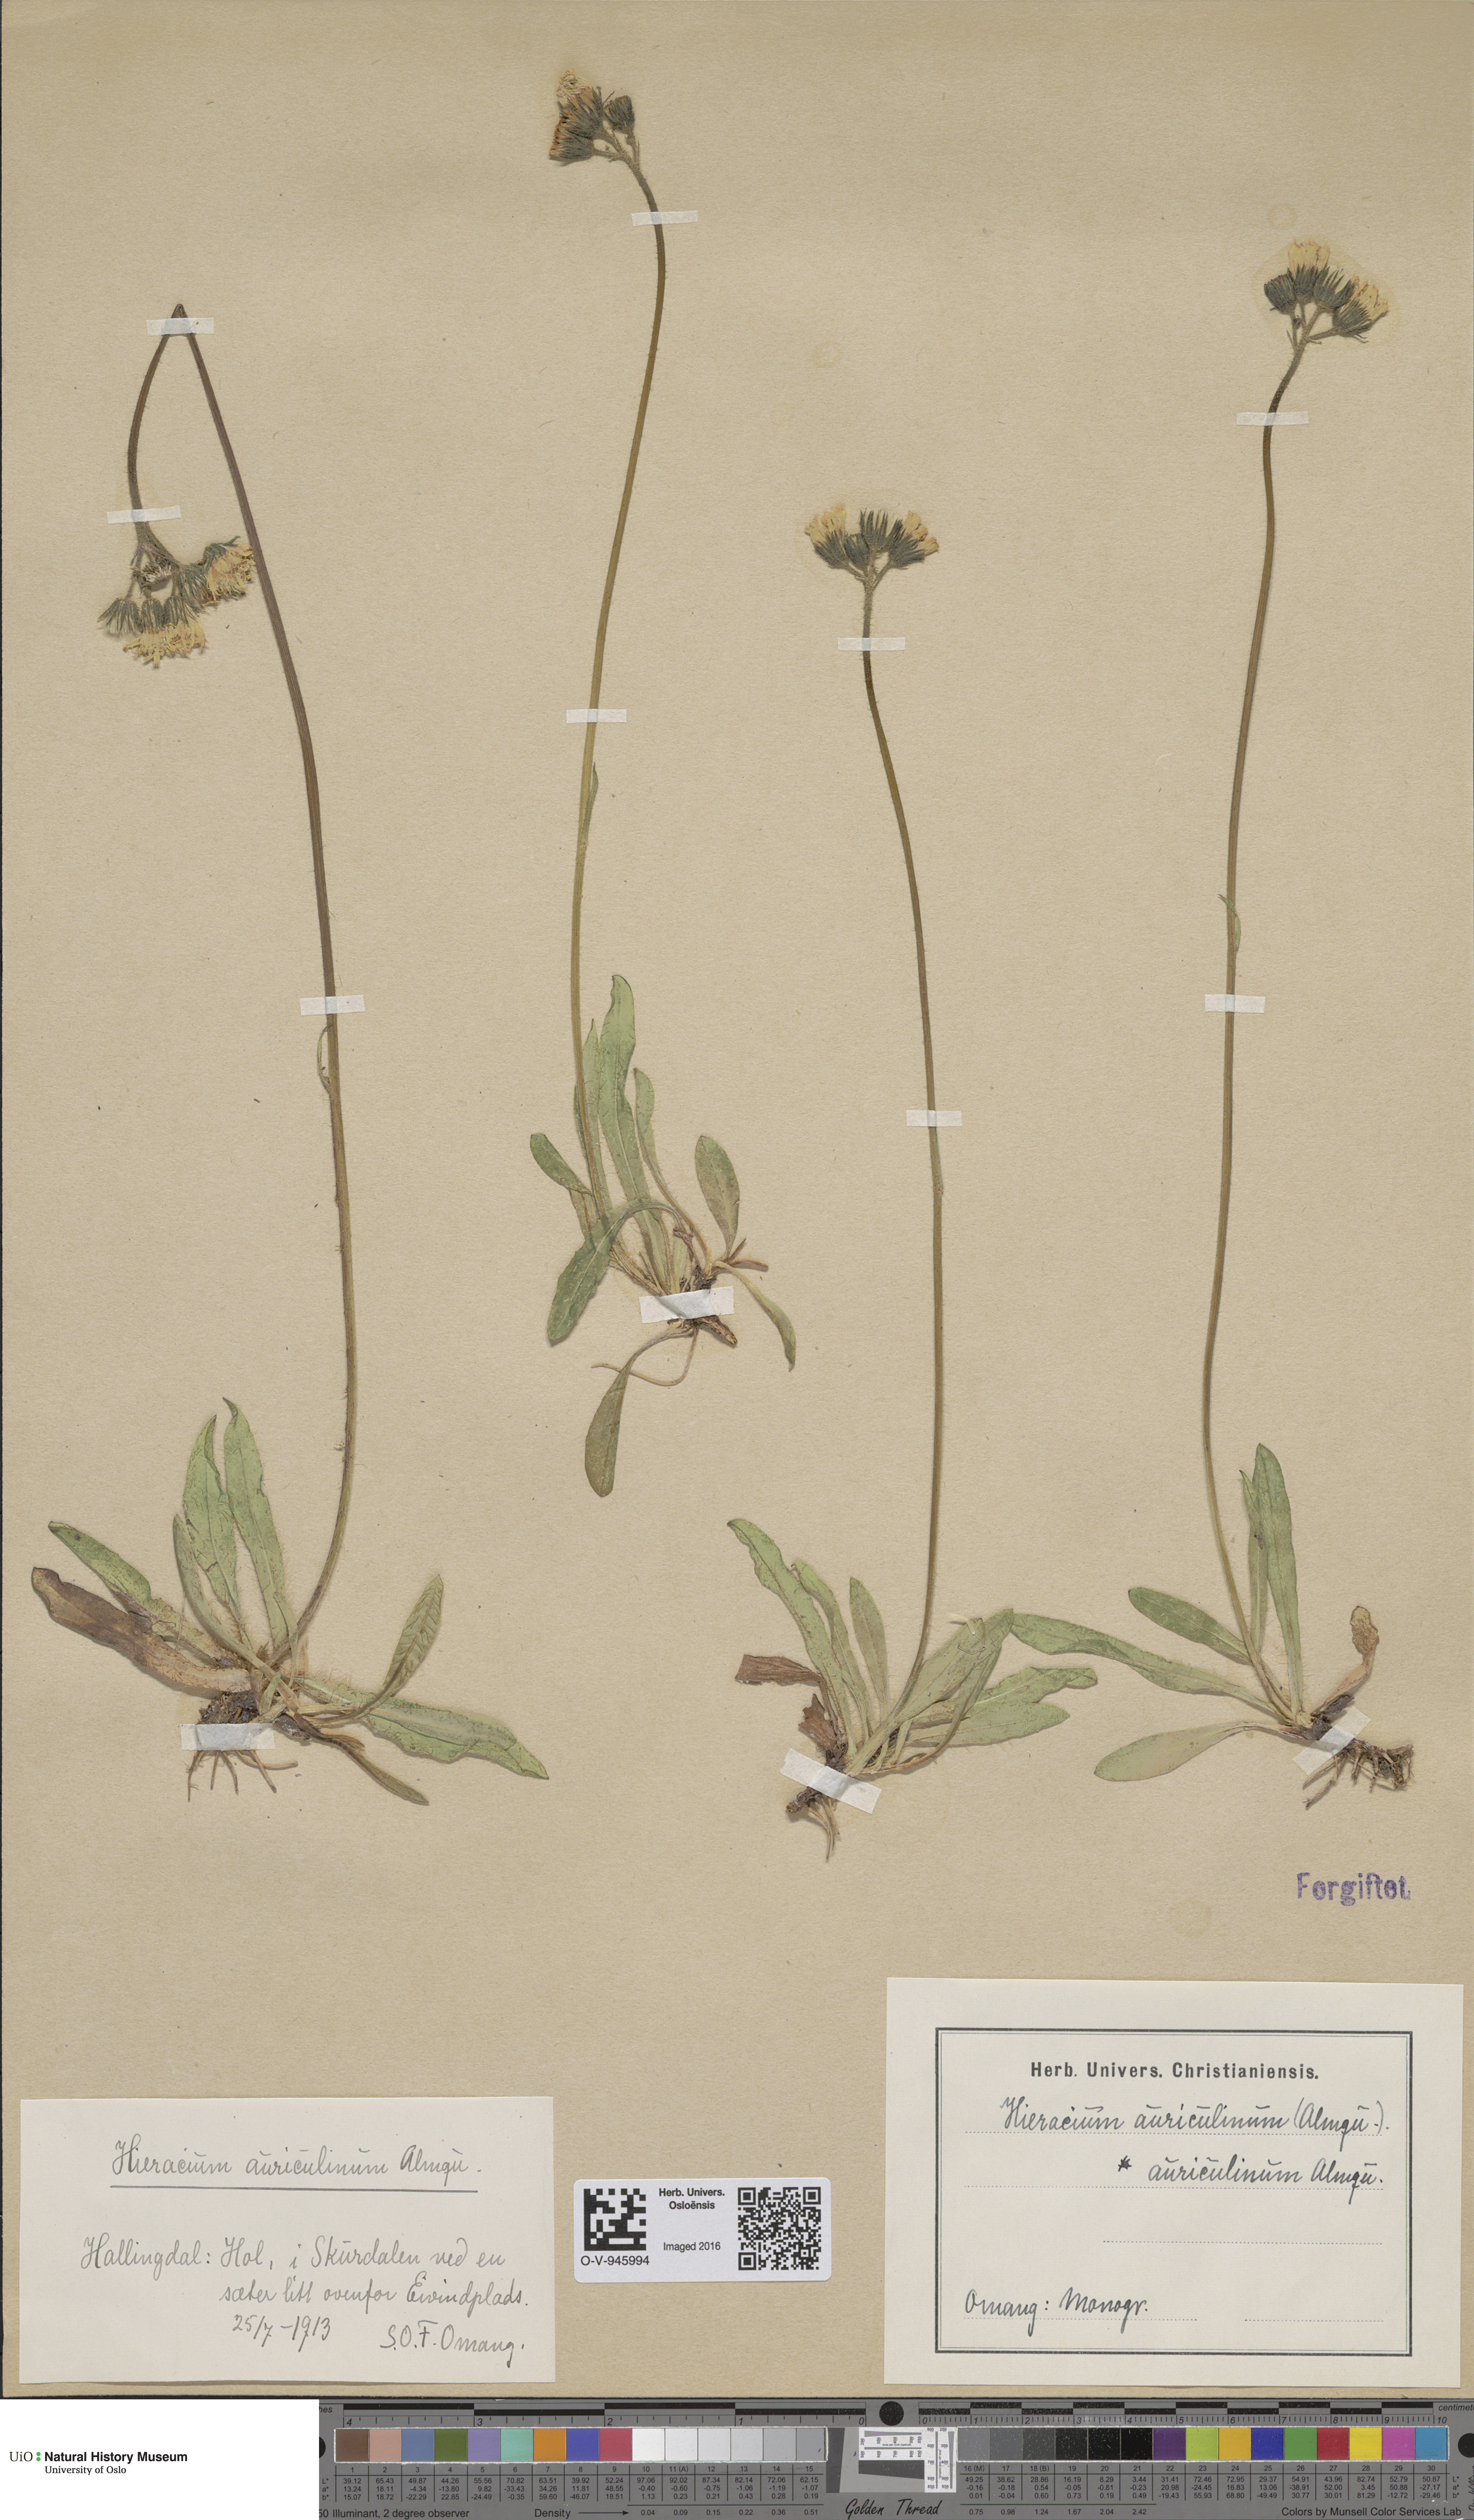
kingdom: Plantae
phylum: Tracheophyta
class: Magnoliopsida
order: Asterales
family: Asteraceae
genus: Pilosella
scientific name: Pilosella dubia
